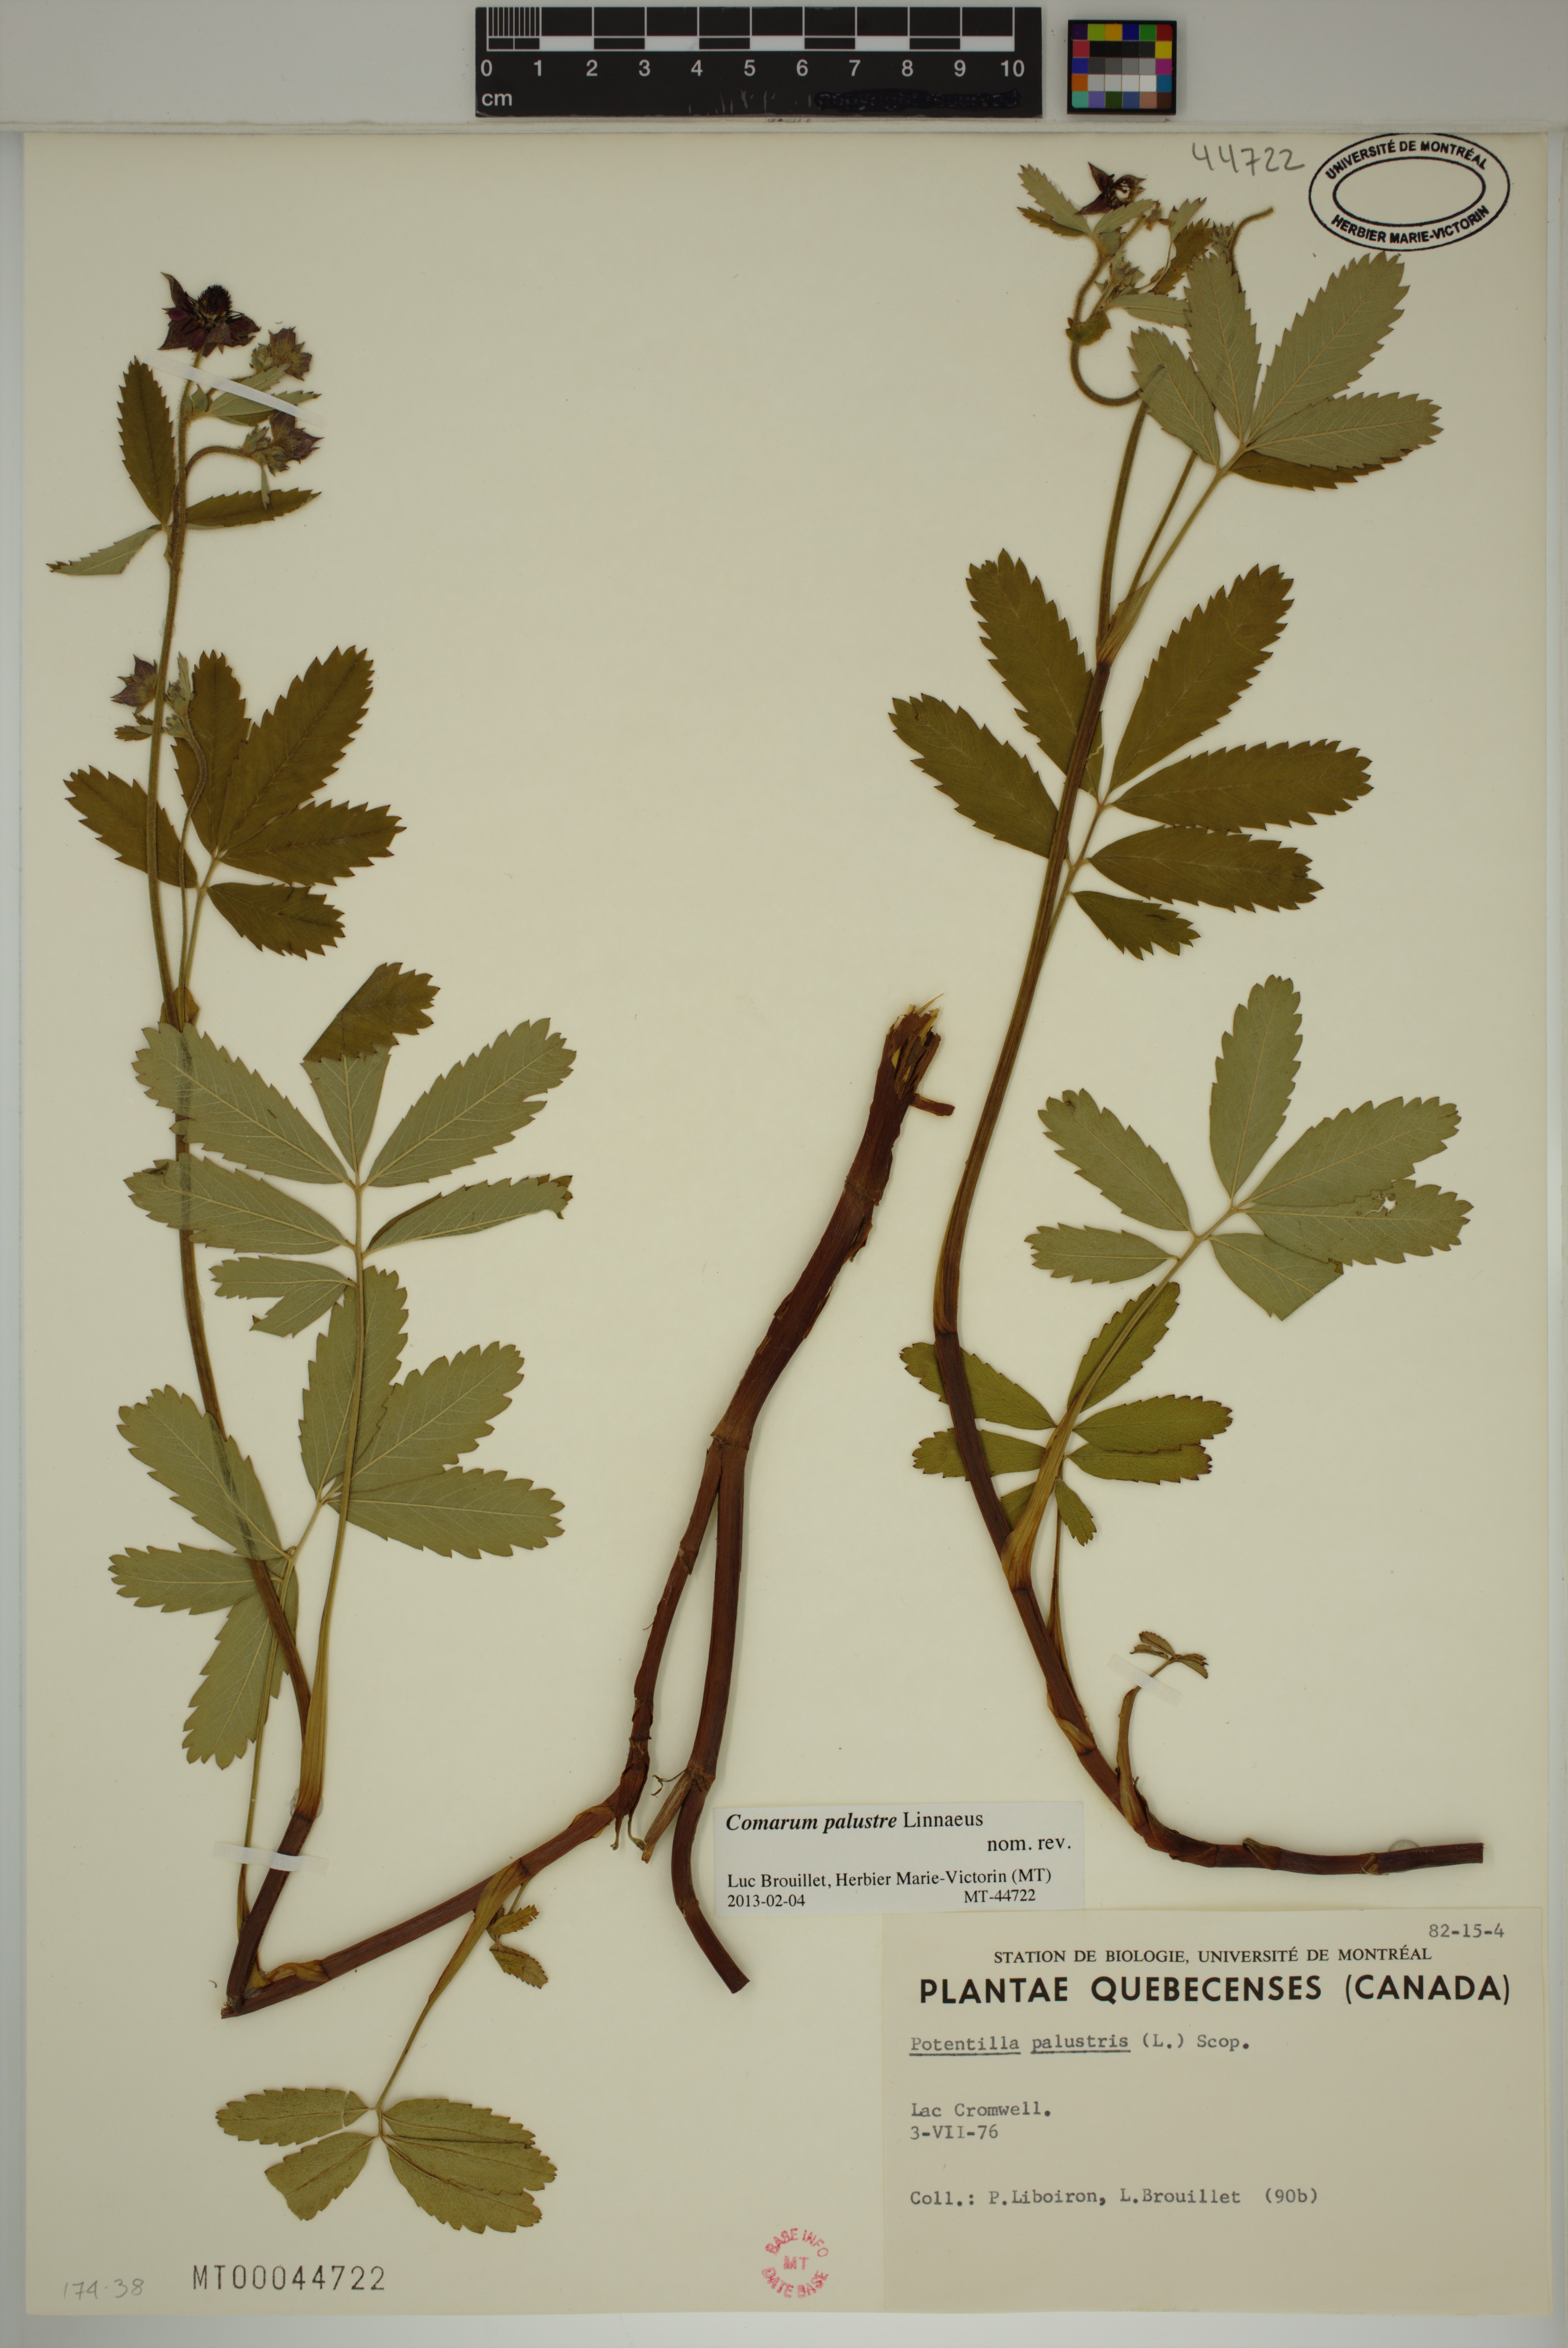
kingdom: Plantae
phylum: Tracheophyta
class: Magnoliopsida
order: Rosales
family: Rosaceae
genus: Comarum
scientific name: Comarum palustre
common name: Marsh cinquefoil
